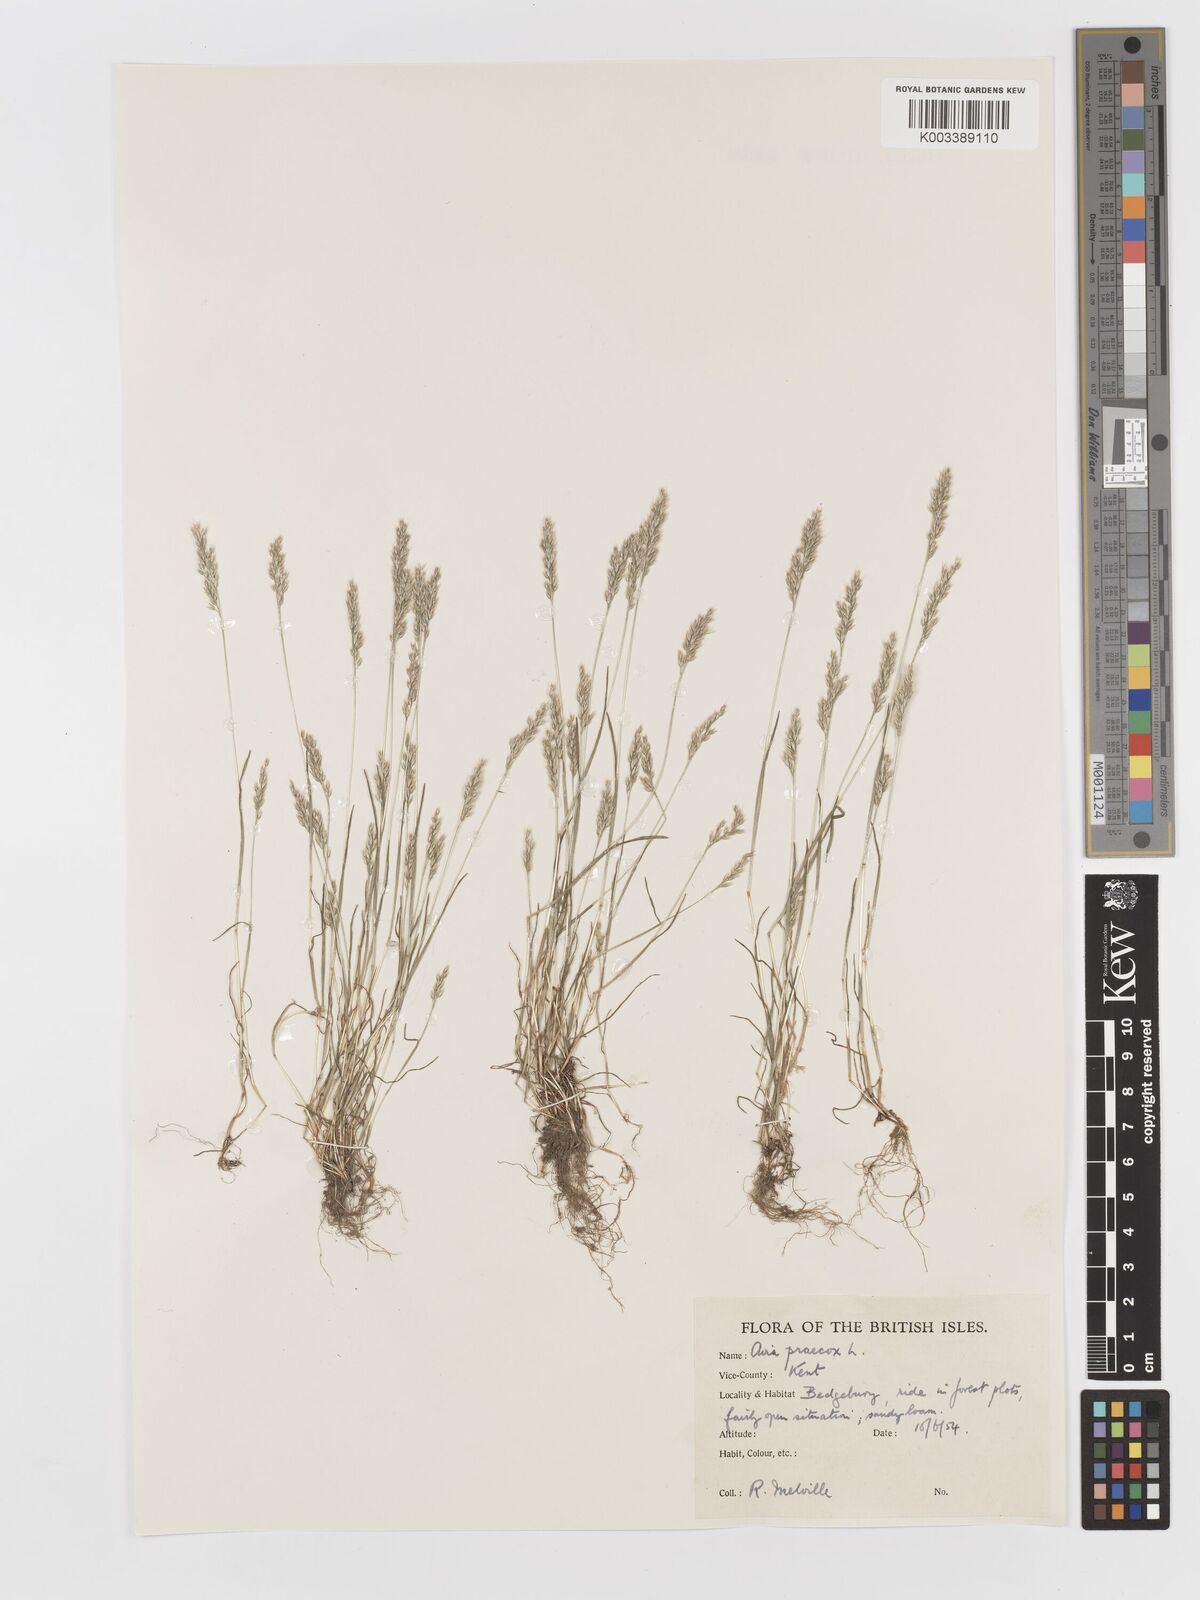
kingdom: Plantae
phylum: Tracheophyta
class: Liliopsida
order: Poales
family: Poaceae
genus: Aira
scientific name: Aira praecox
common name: Early hair-grass
